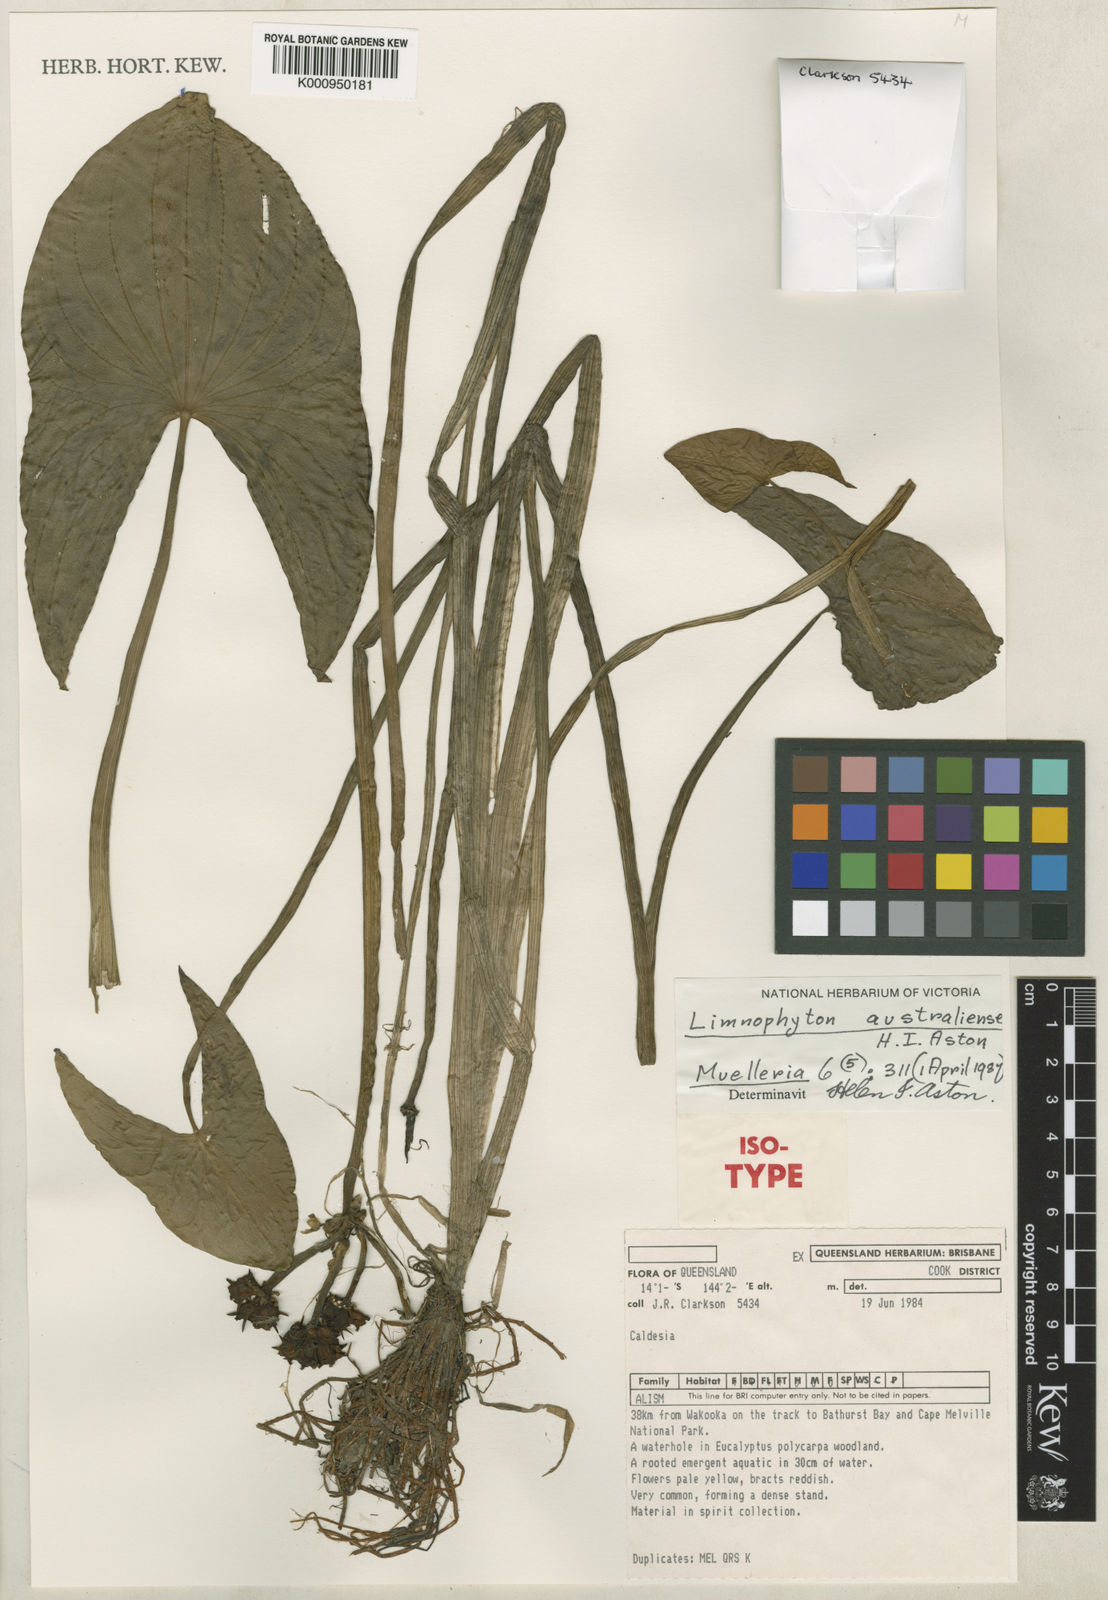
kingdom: Plantae
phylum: Tracheophyta
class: Liliopsida
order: Alismatales
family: Alismataceae
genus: Astonia
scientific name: Astonia australiensis
